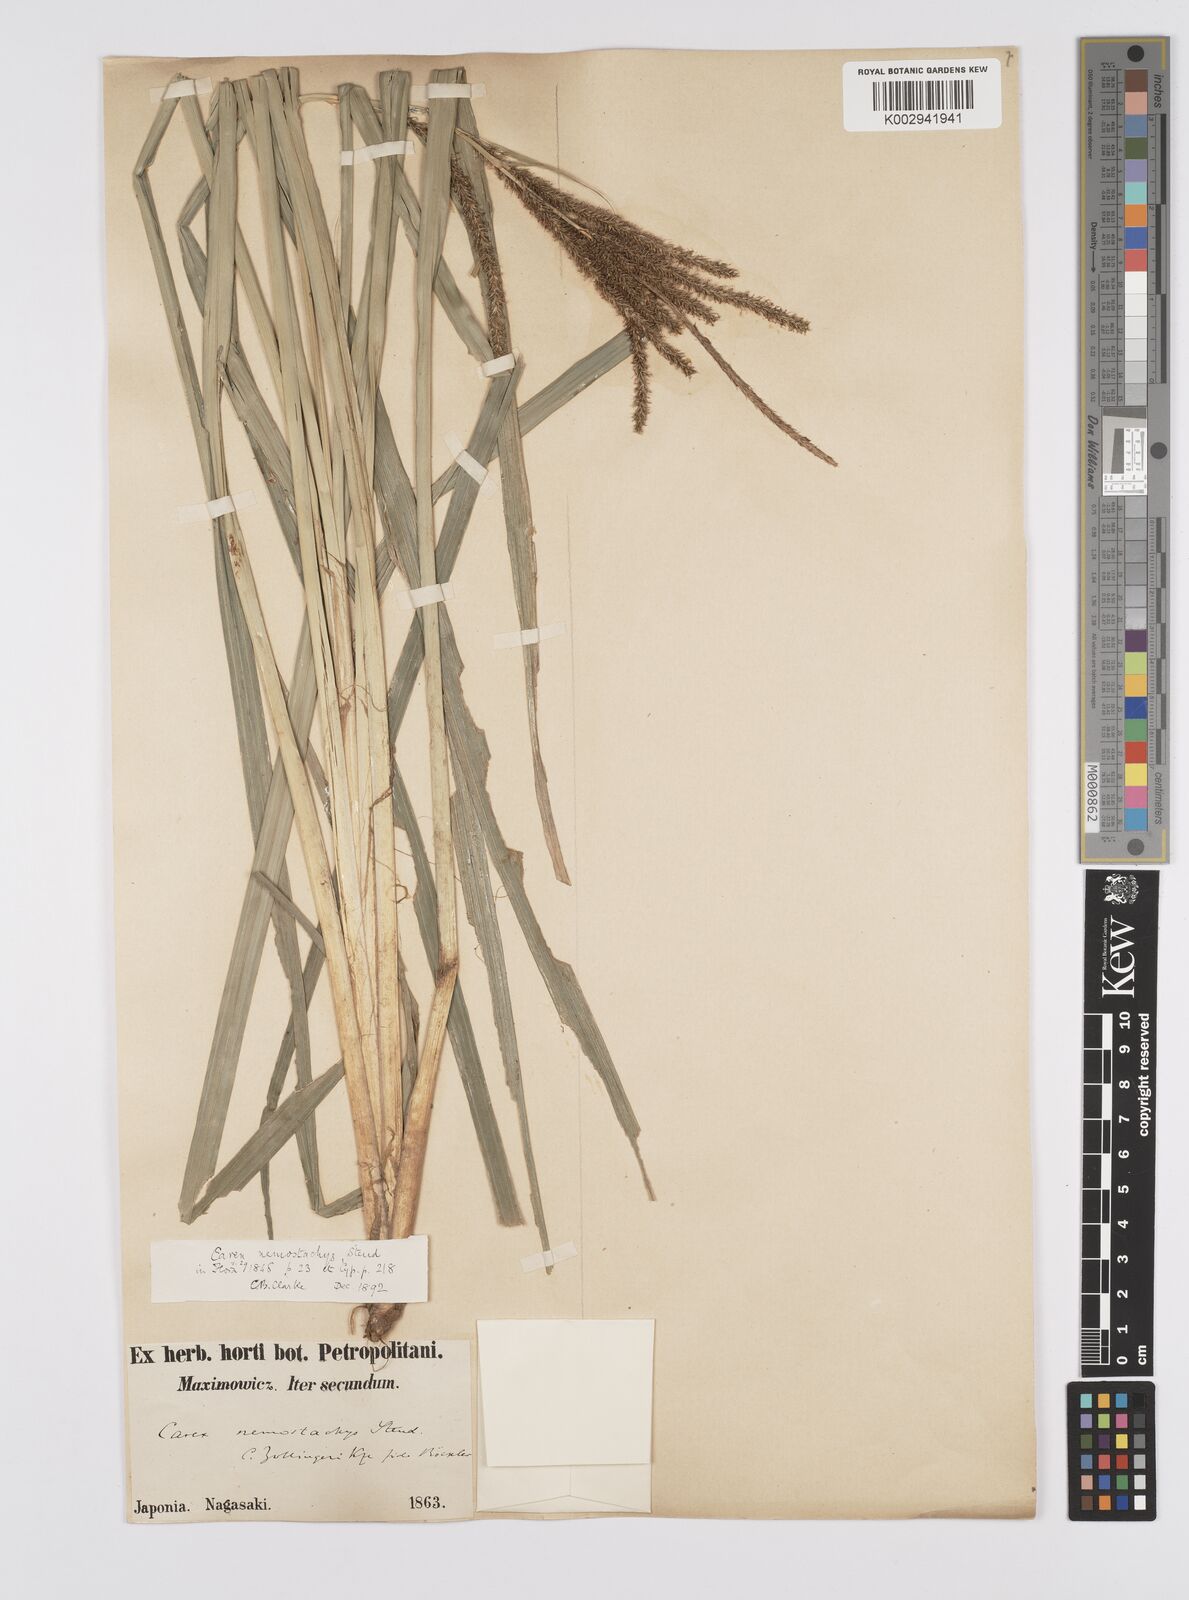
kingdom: Plantae
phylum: Tracheophyta
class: Liliopsida
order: Poales
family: Cyperaceae
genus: Carex
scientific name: Carex nemostachys
